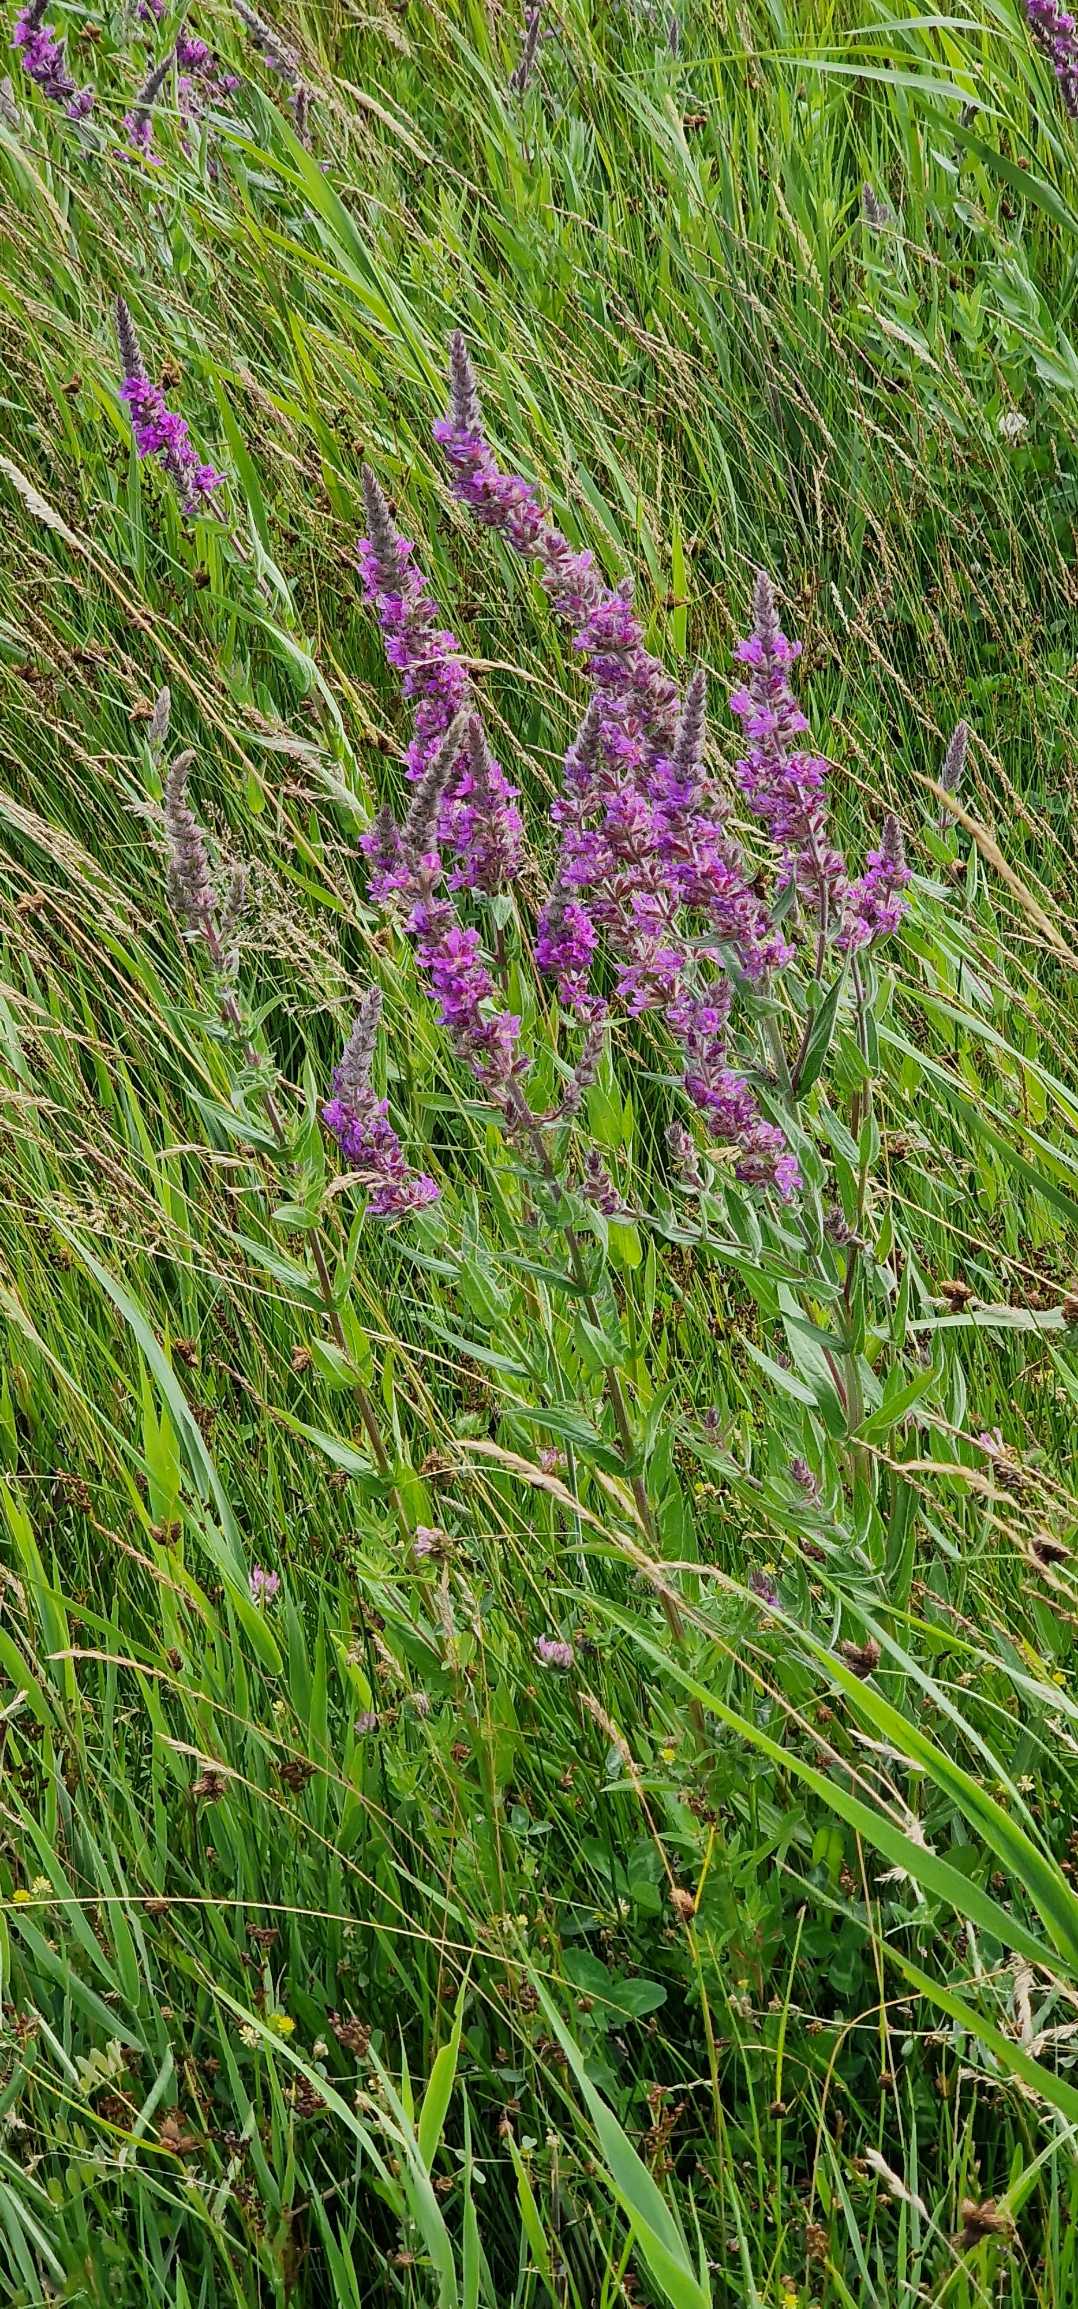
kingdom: Plantae
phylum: Tracheophyta
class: Magnoliopsida
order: Myrtales
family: Lythraceae
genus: Lythrum
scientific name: Lythrum salicaria
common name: Kattehale
